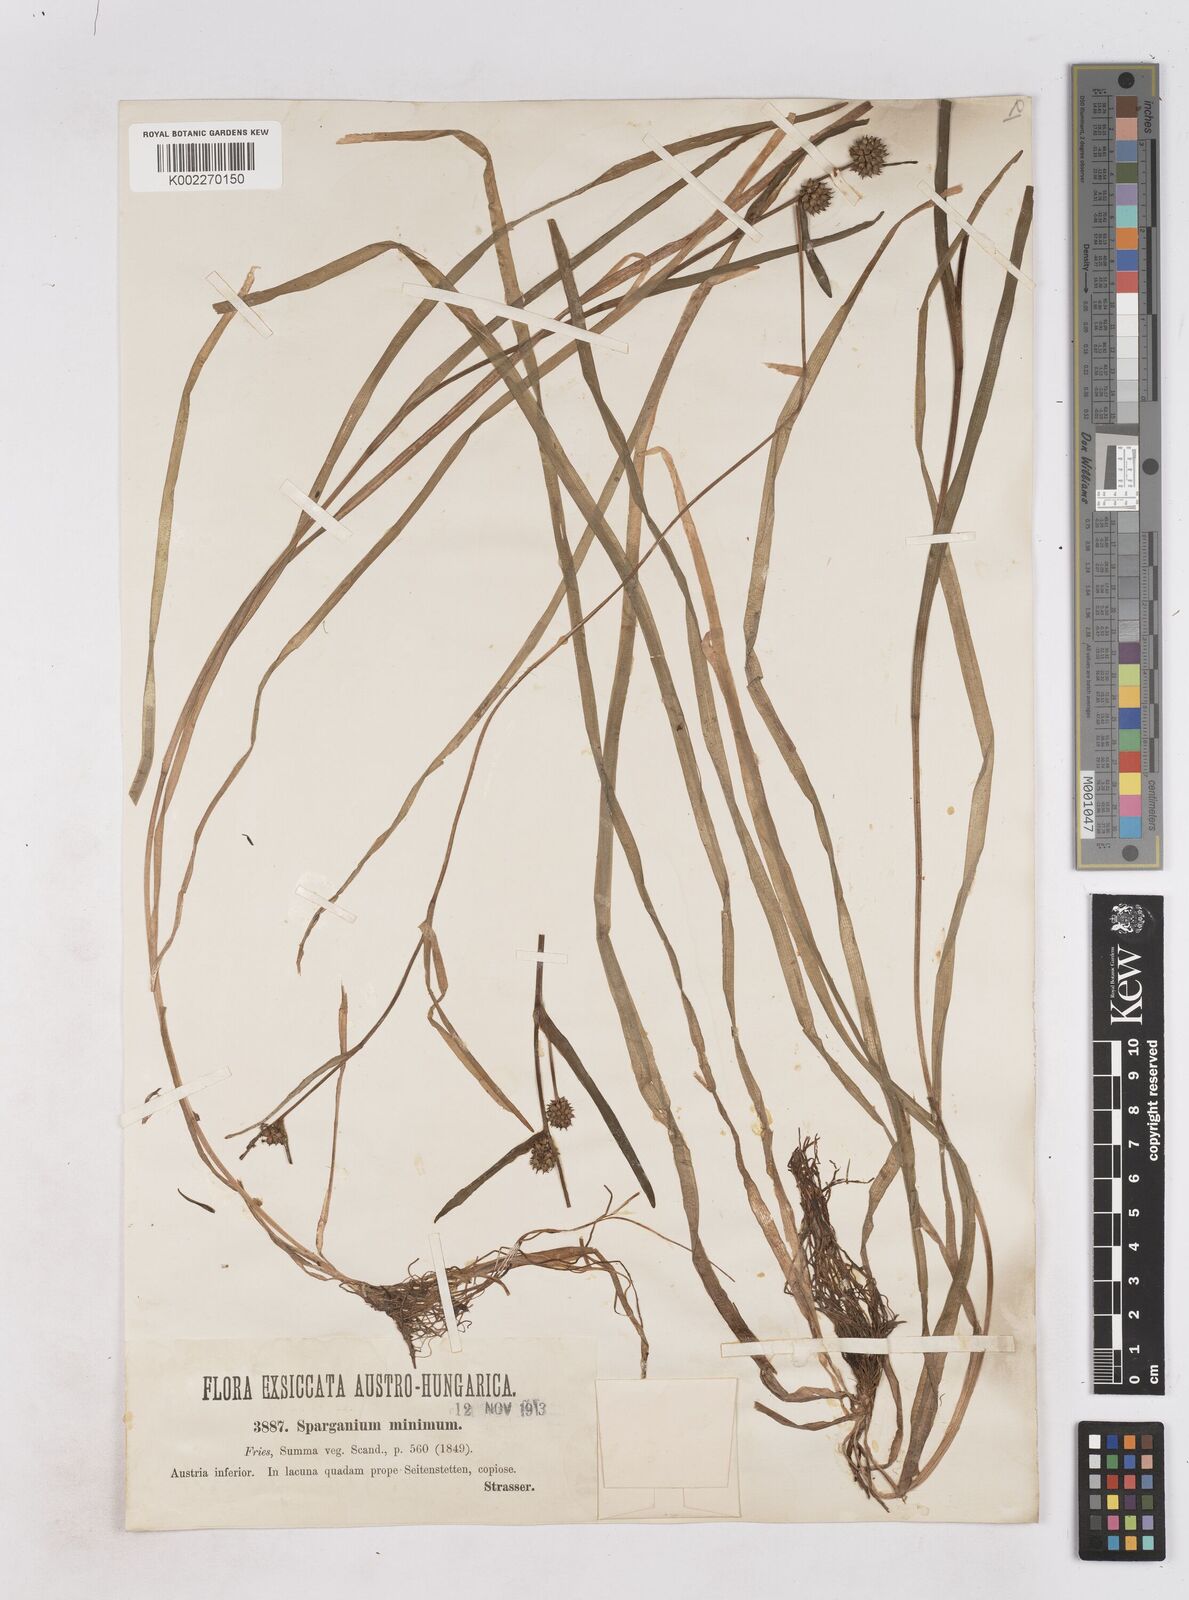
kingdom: Plantae
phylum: Tracheophyta
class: Liliopsida
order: Poales
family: Typhaceae
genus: Sparganium
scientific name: Sparganium natans
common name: Least bur-reed
